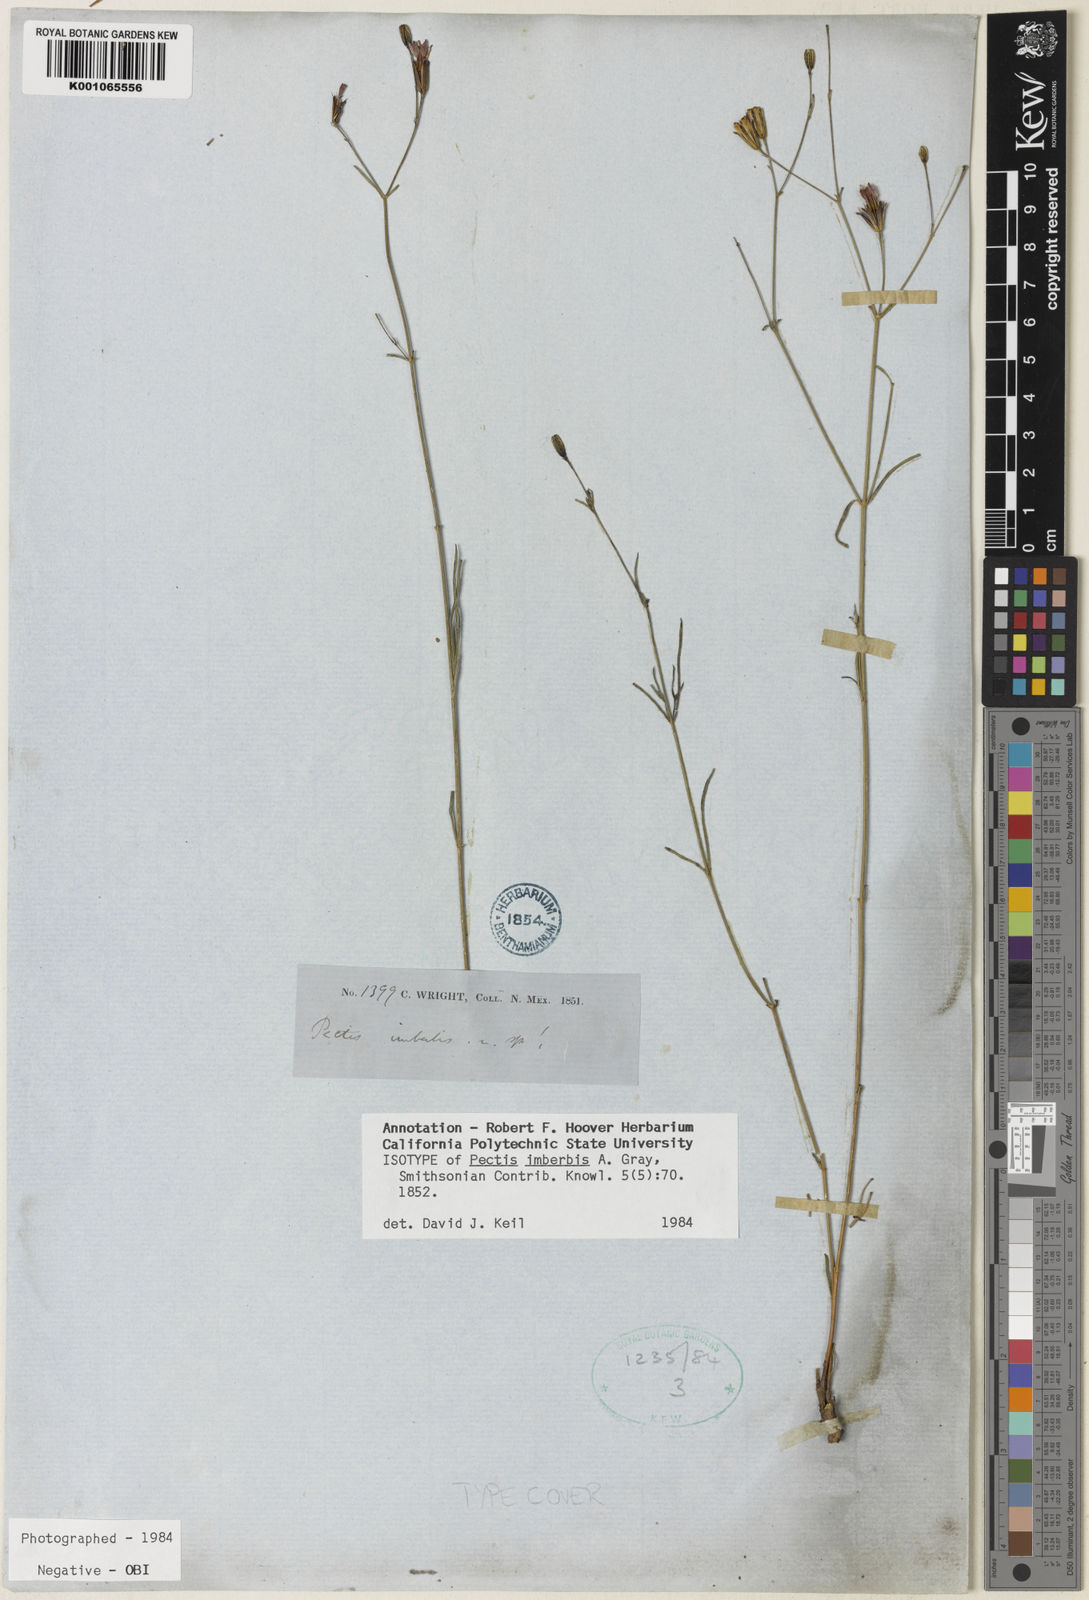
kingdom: Plantae
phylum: Tracheophyta
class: Magnoliopsida
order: Asterales
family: Asteraceae
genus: Pectis
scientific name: Pectis imberbis
